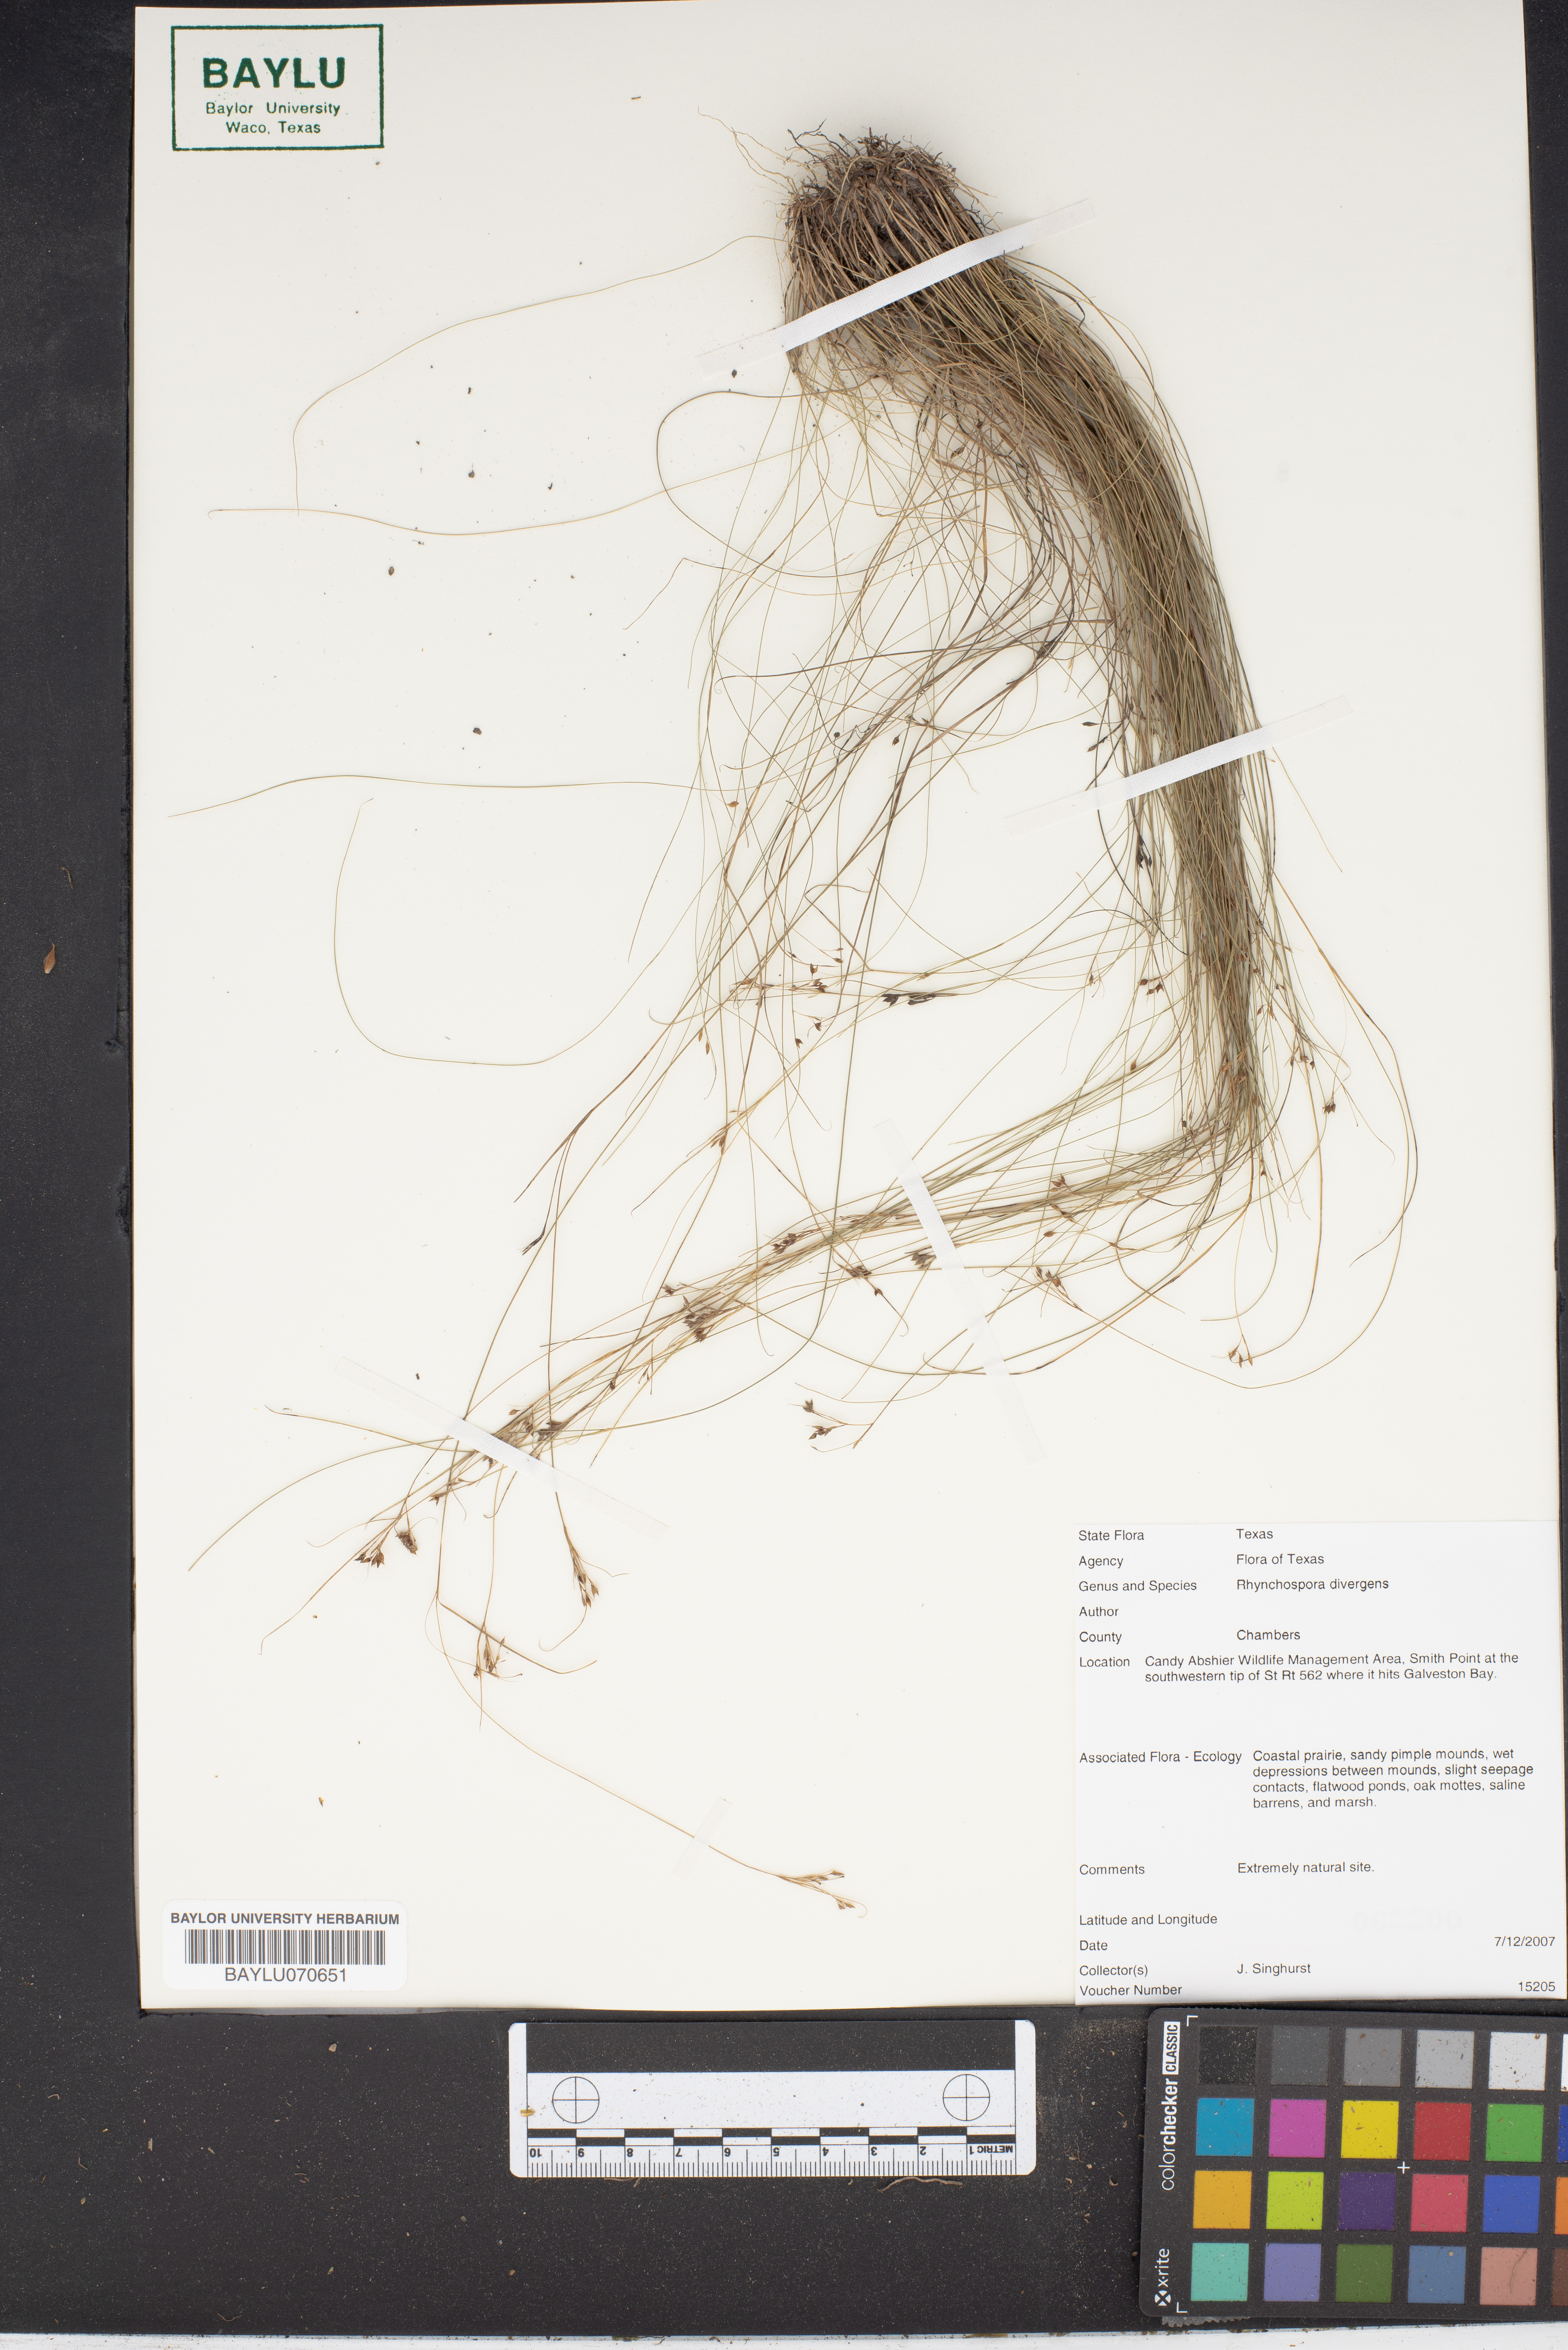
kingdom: Plantae
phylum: Tracheophyta
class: Liliopsida
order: Poales
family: Cyperaceae
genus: Rhynchospora
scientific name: Rhynchospora divergens
